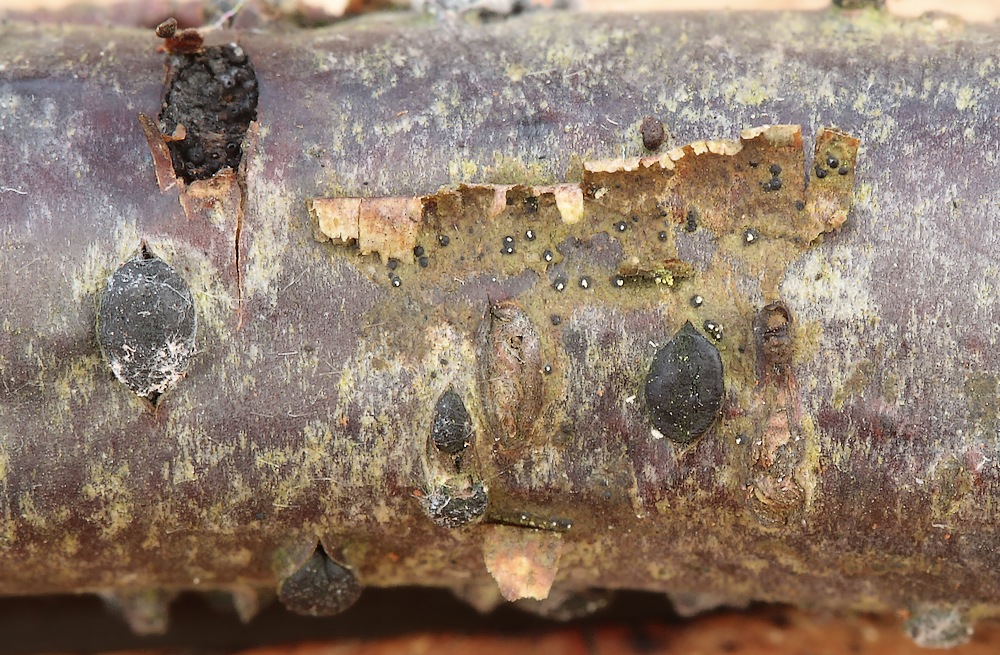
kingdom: Fungi
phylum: Ascomycota
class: Dothideomycetes
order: Botryosphaeriales
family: Botryosphaeriaceae
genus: Dothiora
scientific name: Dothiora ribesia
